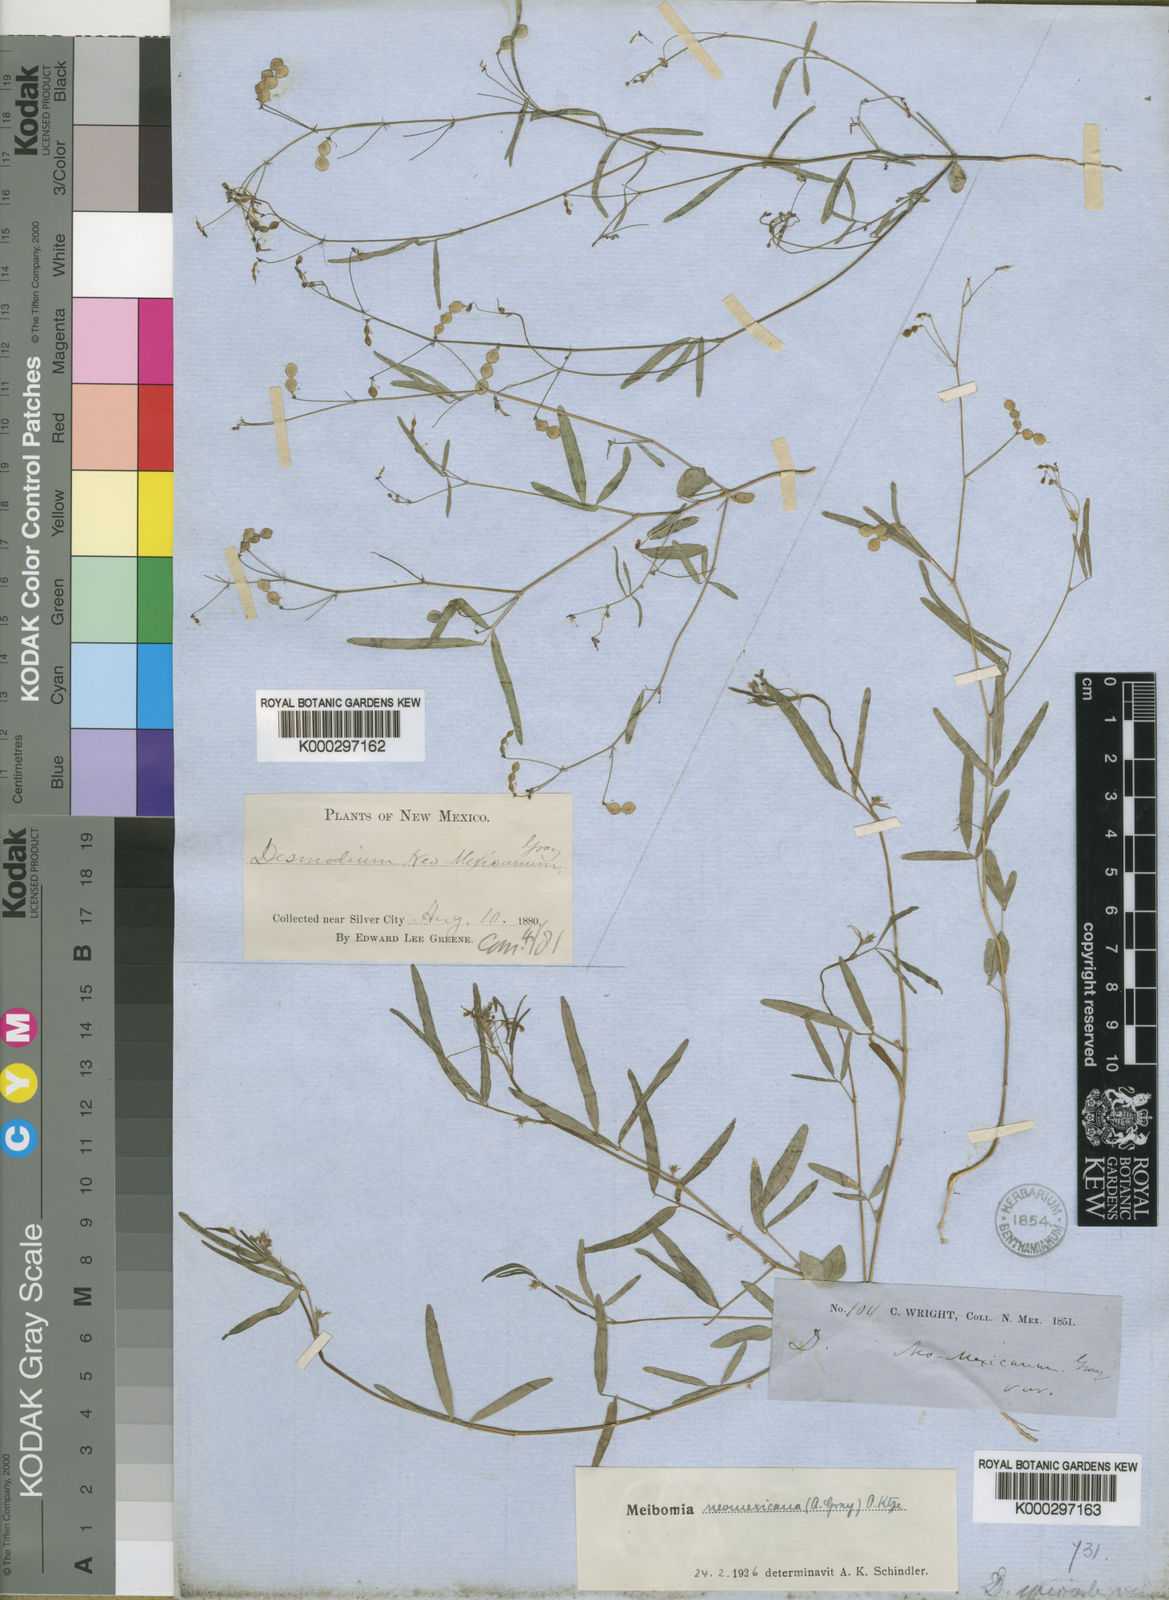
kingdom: Plantae
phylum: Tracheophyta
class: Magnoliopsida
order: Fabales
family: Fabaceae
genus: Desmodium
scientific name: Desmodium procumbens
